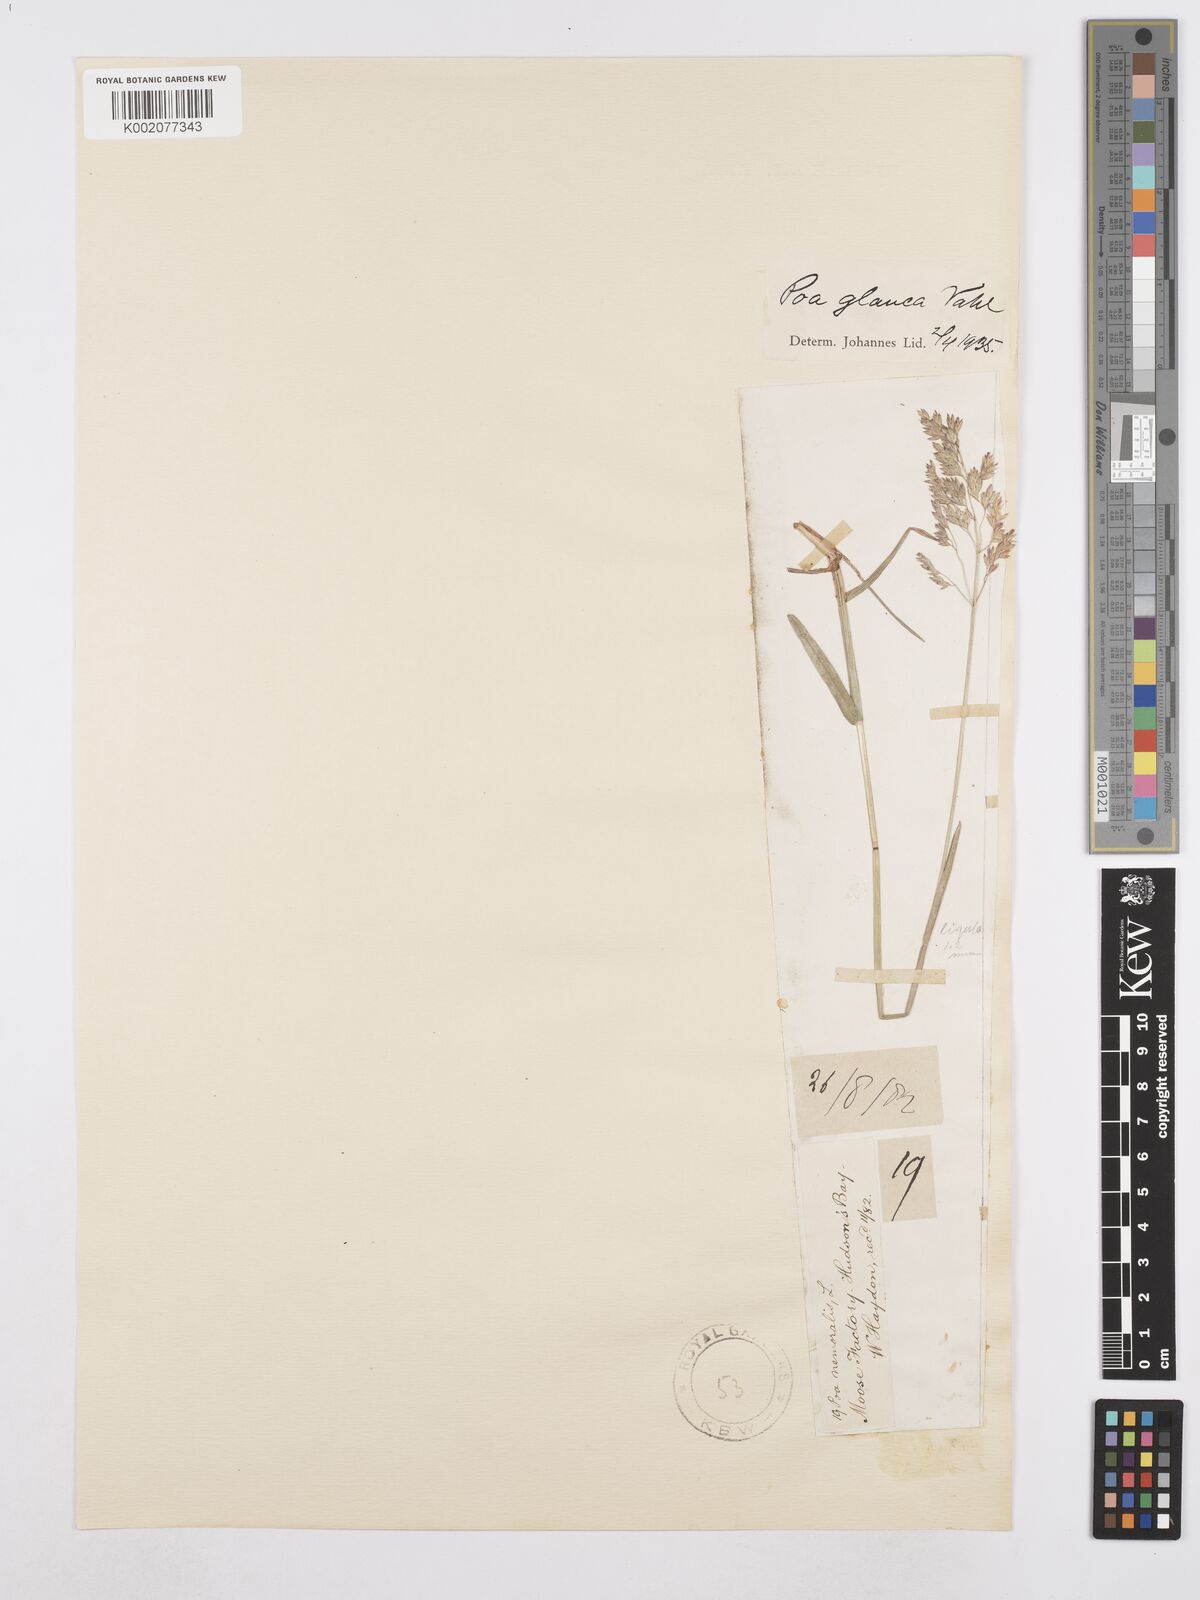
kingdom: Plantae
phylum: Tracheophyta
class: Liliopsida
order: Poales
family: Poaceae
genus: Poa
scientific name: Poa glauca
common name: Glaucous bluegrass
